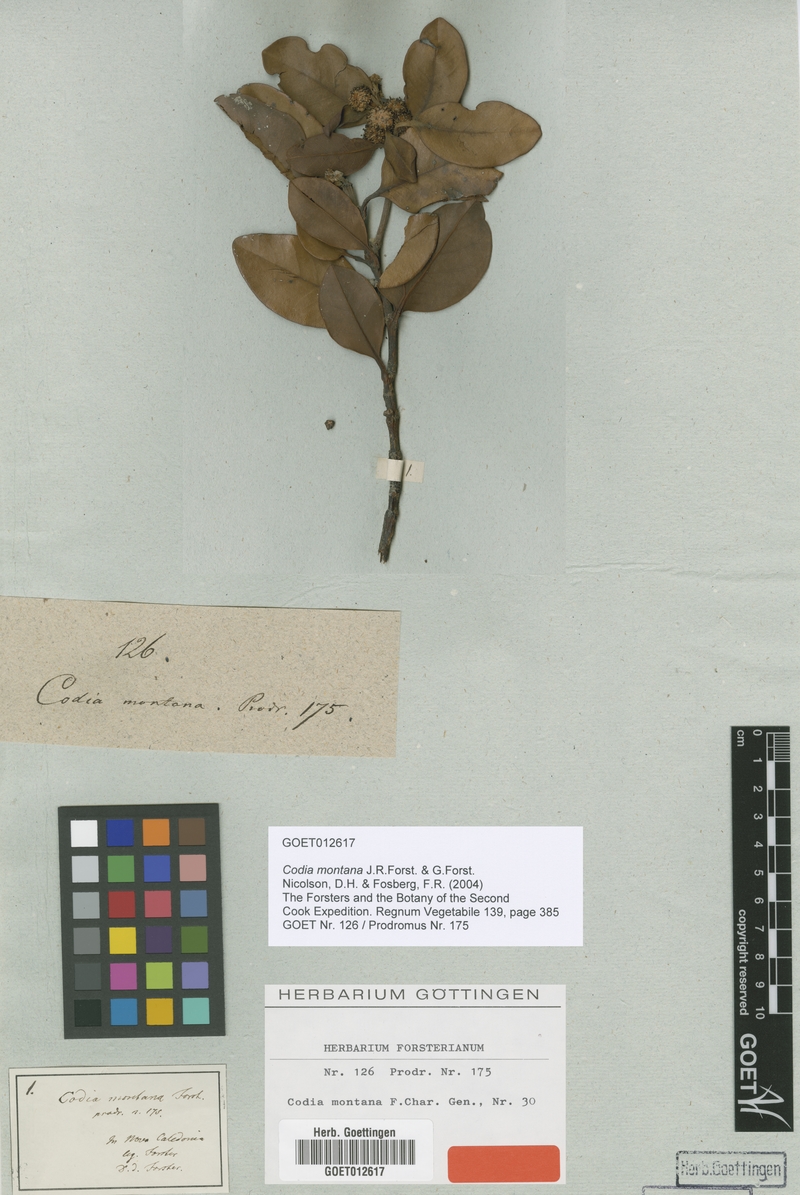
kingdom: Plantae
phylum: Tracheophyta
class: Magnoliopsida
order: Oxalidales
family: Cunoniaceae
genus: Codia
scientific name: Codia montana
